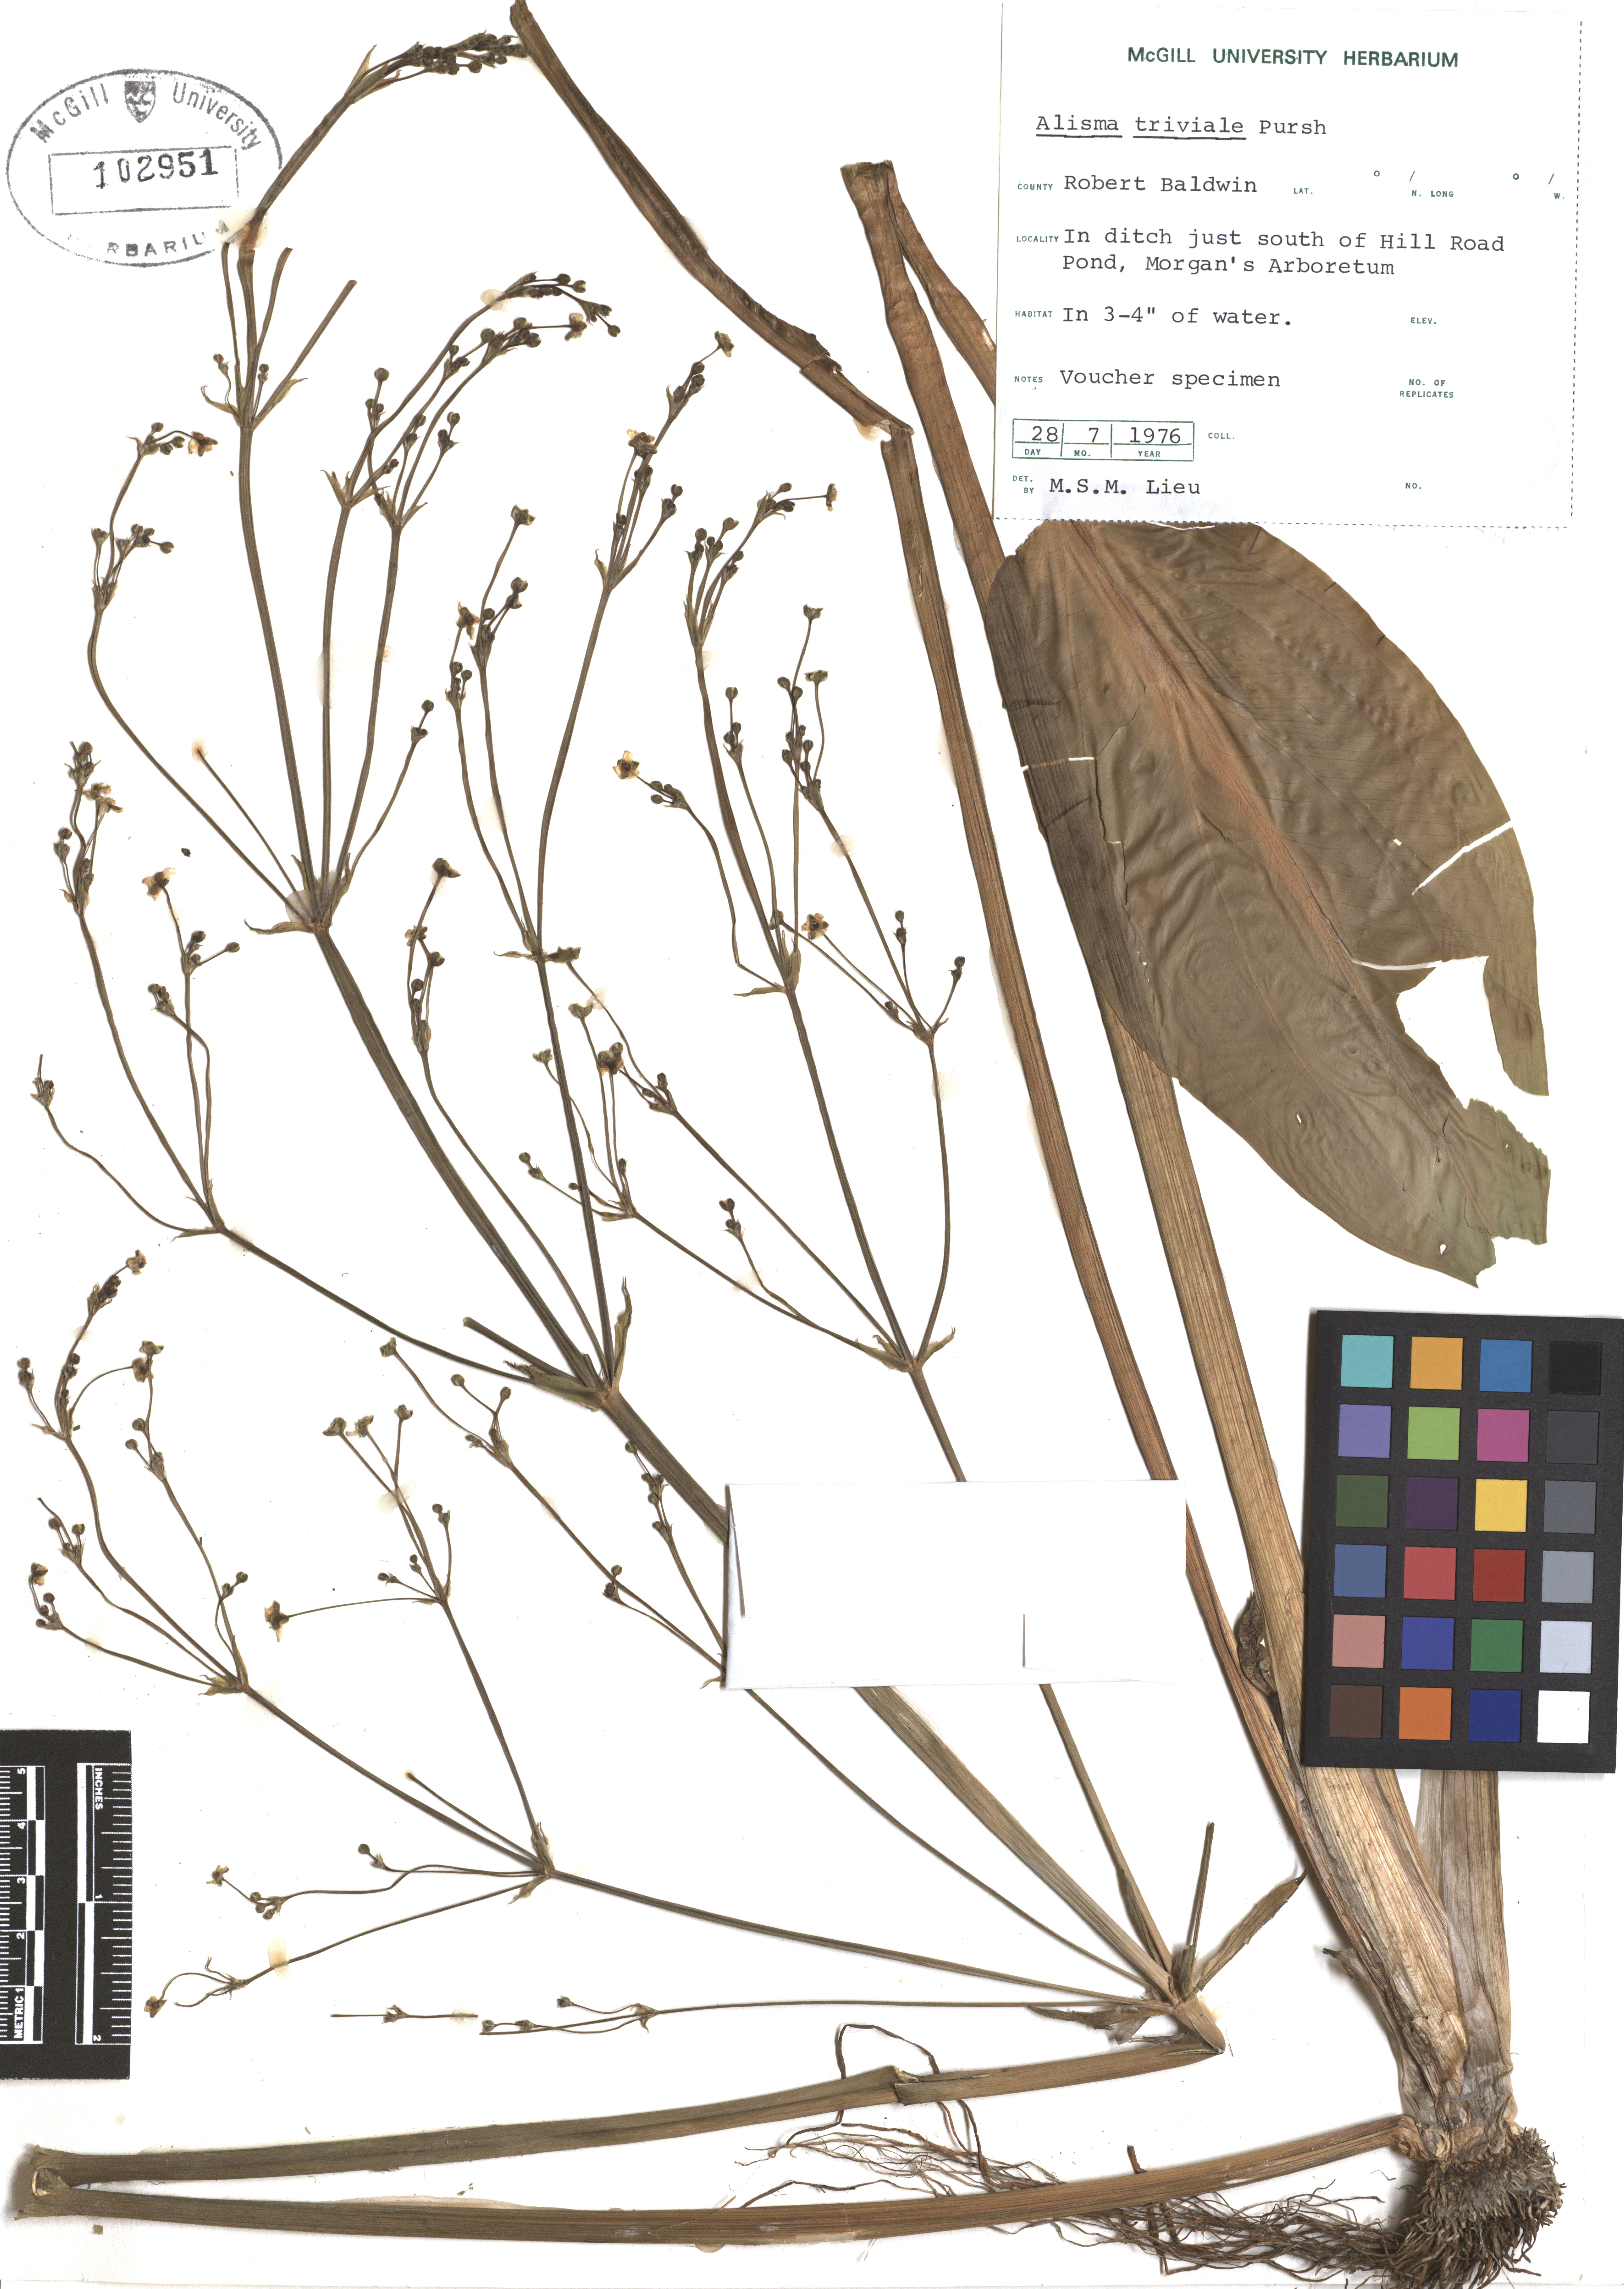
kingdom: Plantae
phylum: Tracheophyta
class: Liliopsida
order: Alismatales
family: Alismataceae
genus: Alisma
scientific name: Alisma triviale
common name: Northern water-plantain
